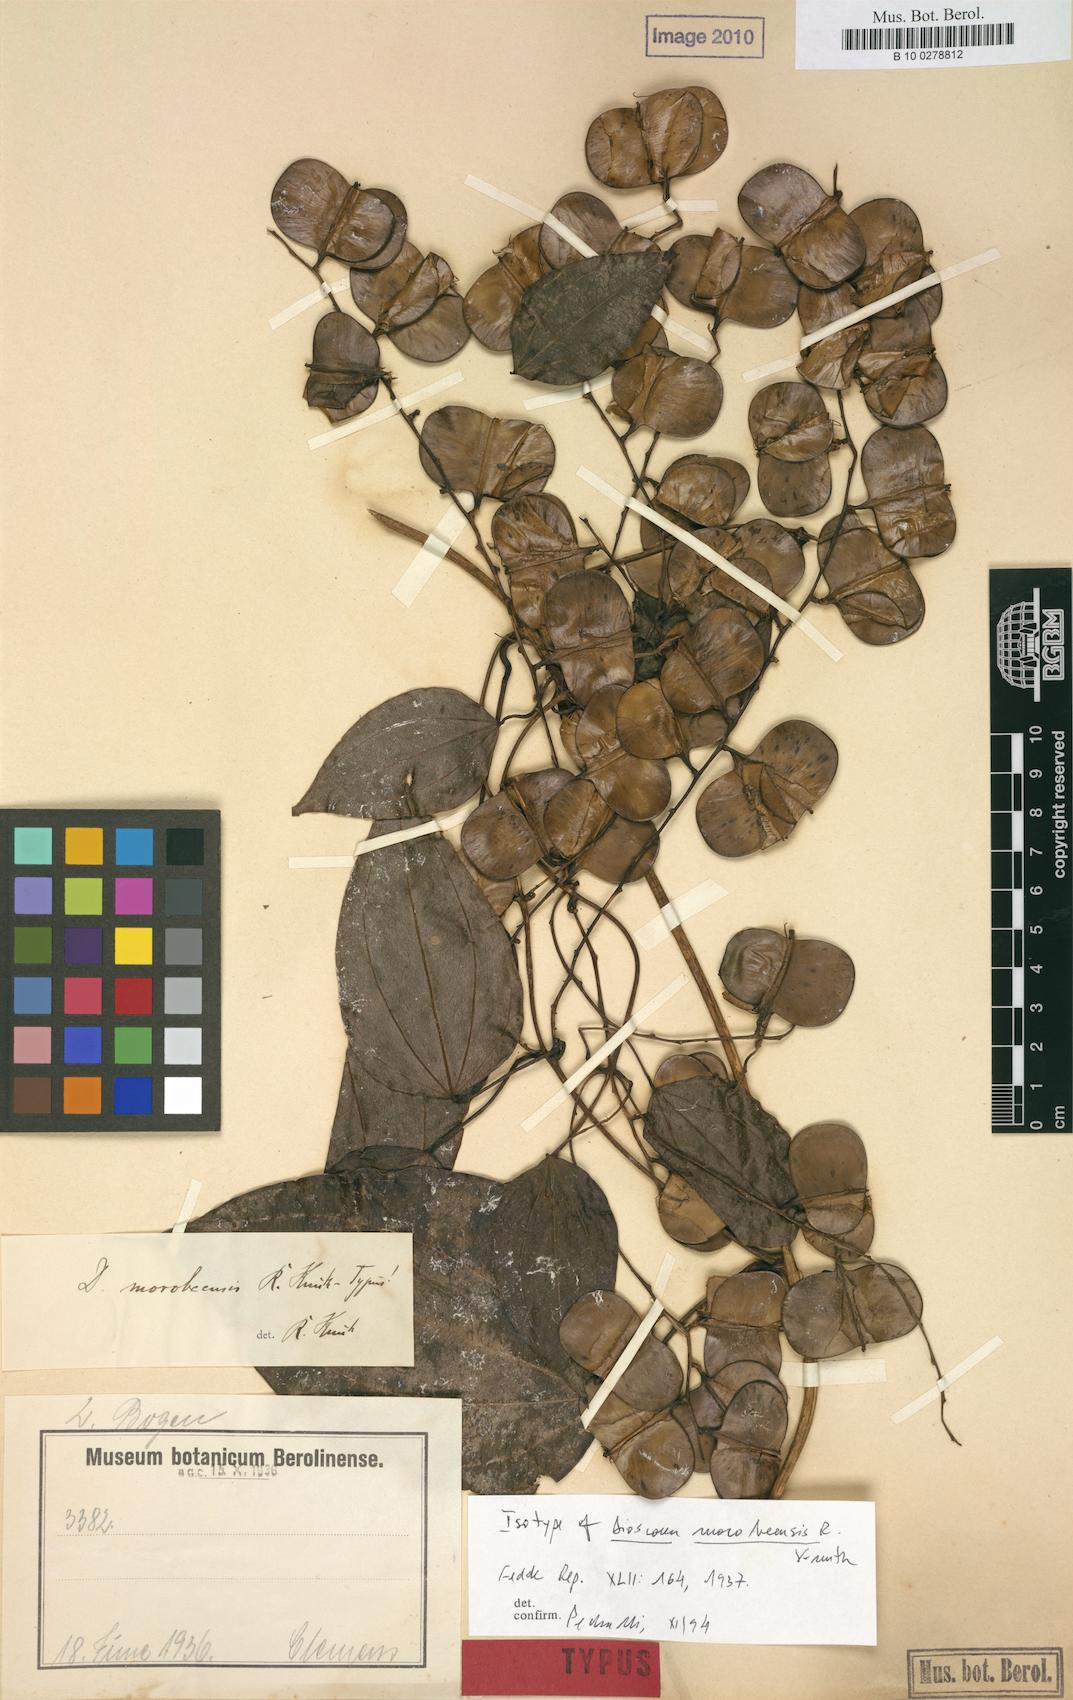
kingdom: Plantae
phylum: Tracheophyta
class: Liliopsida
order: Dioscoreales
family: Dioscoreaceae
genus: Dioscorea
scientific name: Dioscorea opaca
